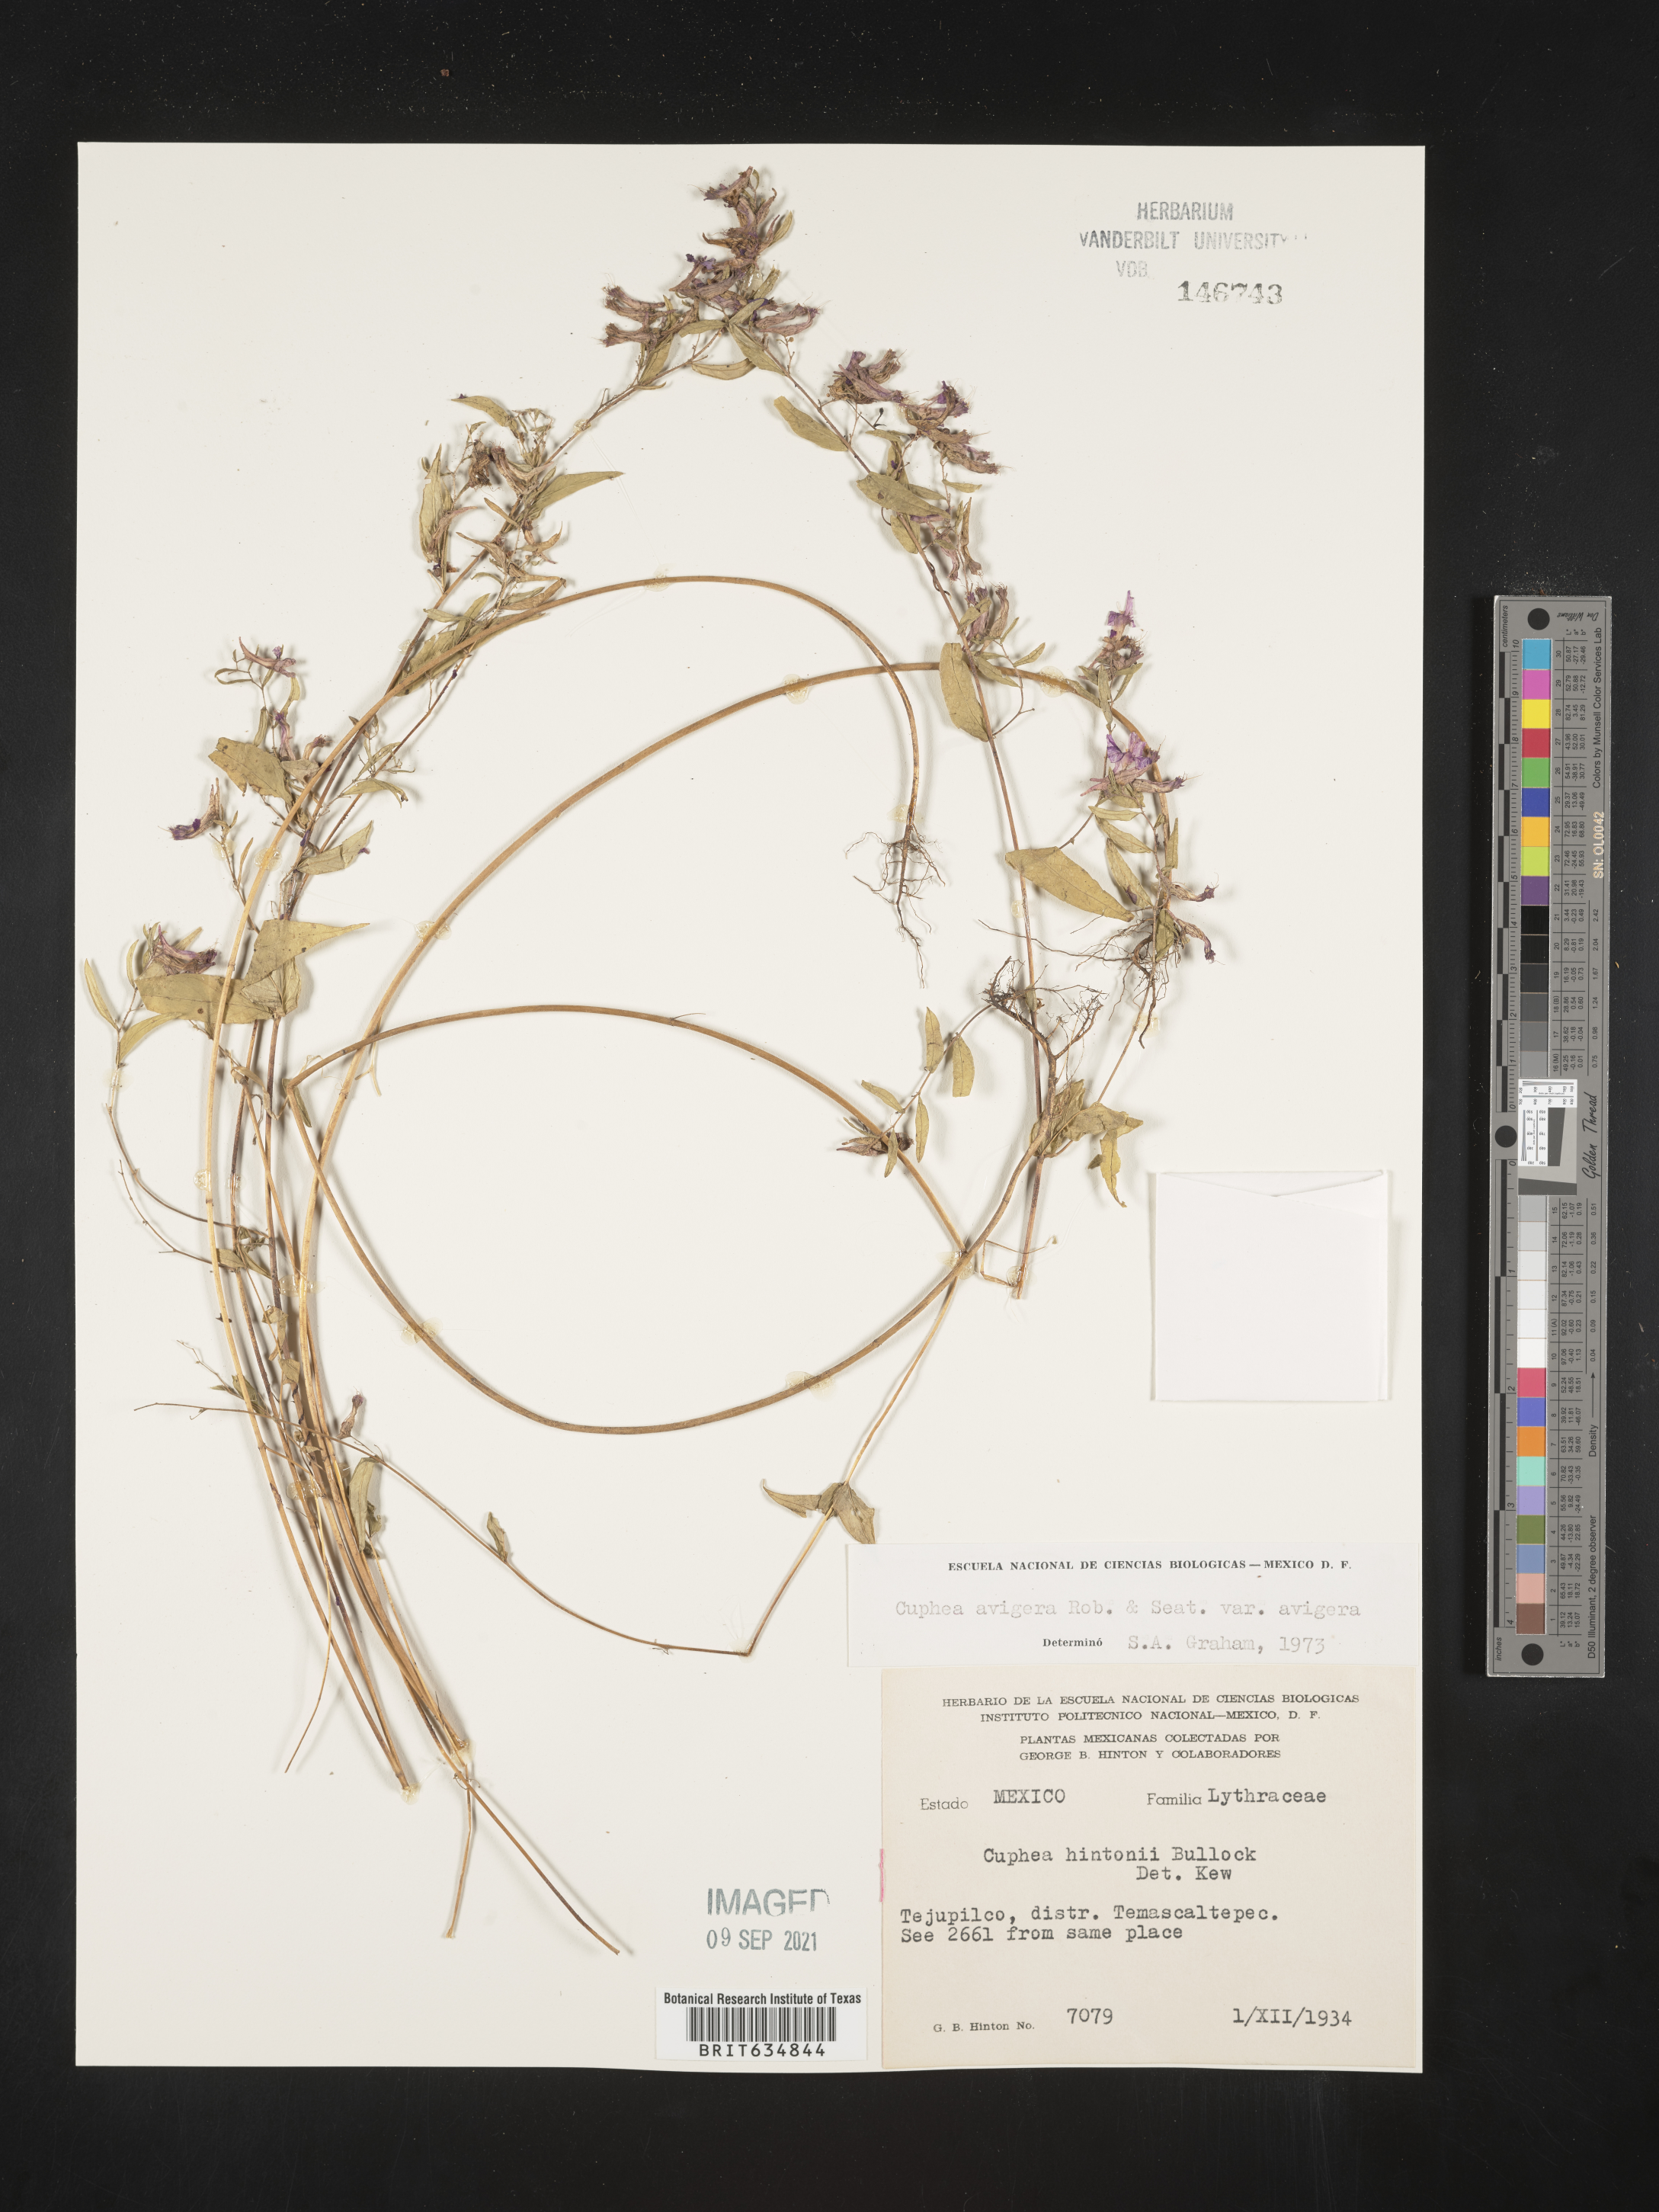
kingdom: Plantae
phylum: Tracheophyta
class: Magnoliopsida
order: Myrtales
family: Lythraceae
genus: Cuphea
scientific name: Cuphea
